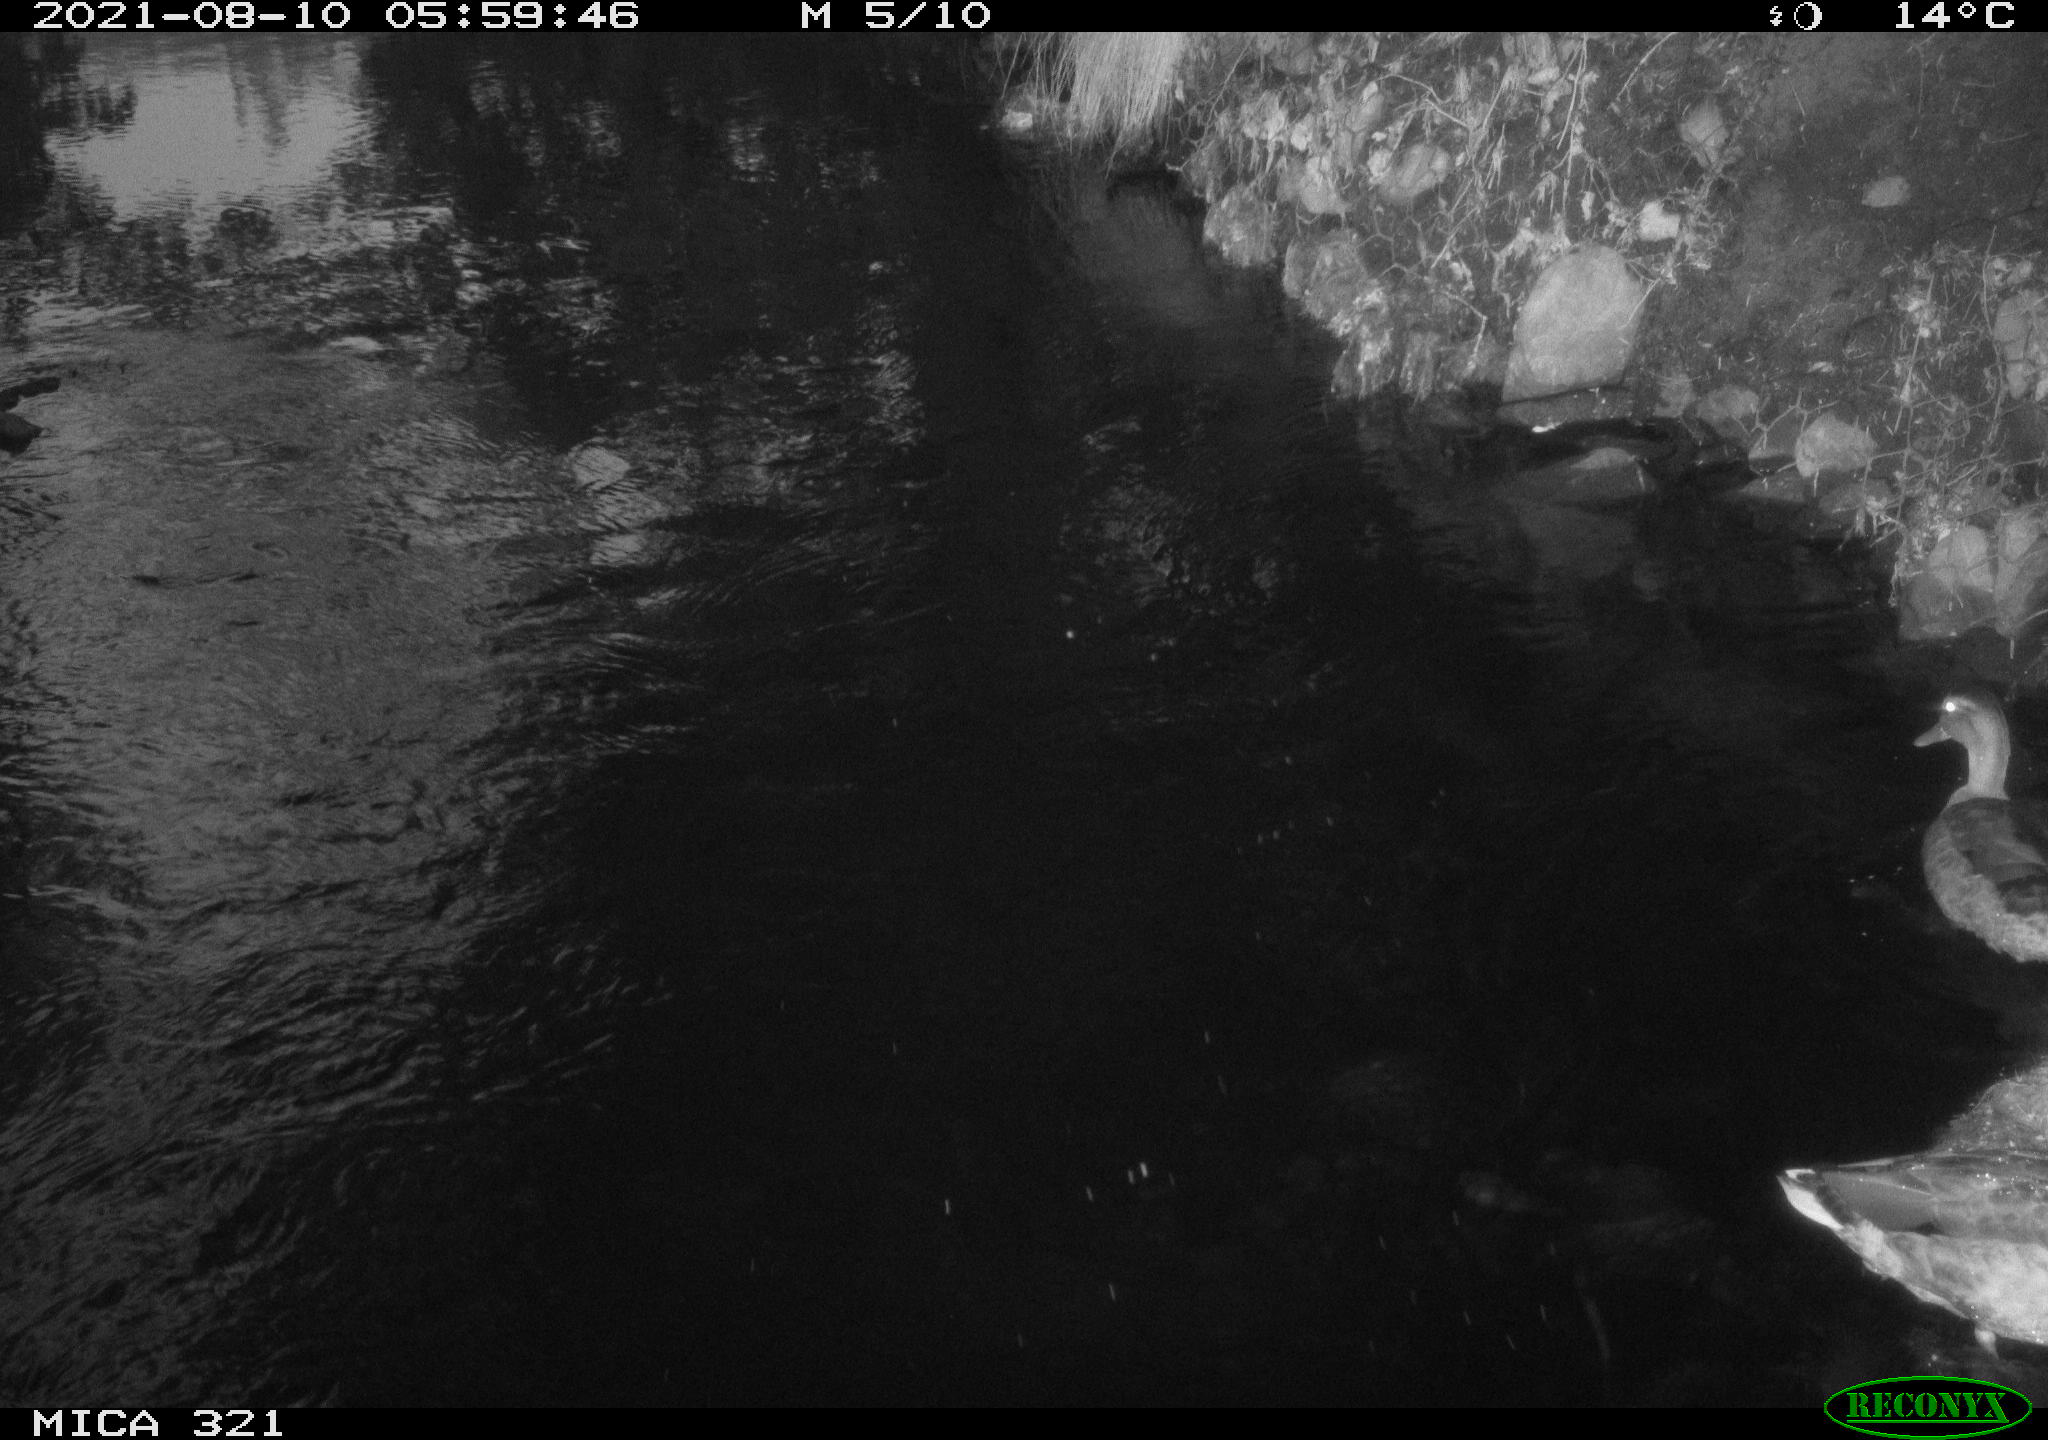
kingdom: Animalia
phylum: Chordata
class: Aves
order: Anseriformes
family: Anatidae
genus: Anas
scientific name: Anas platyrhynchos
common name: Mallard
